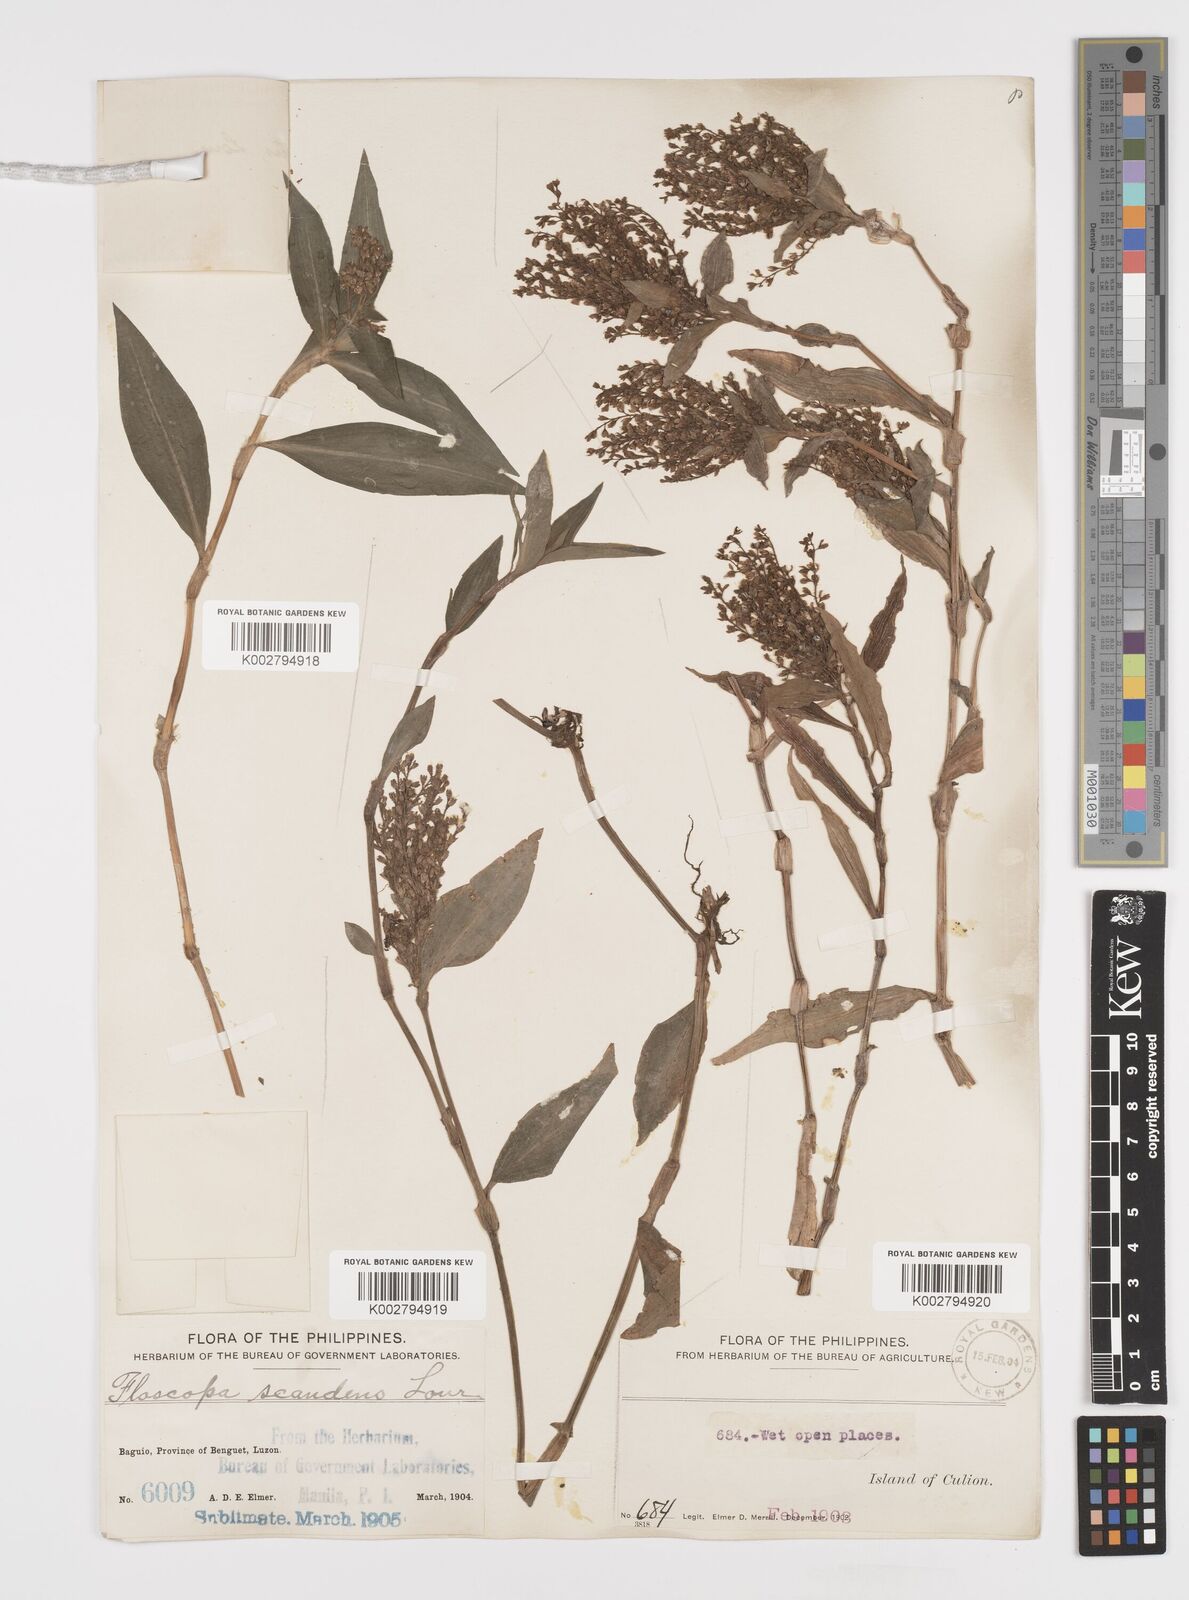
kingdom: Plantae
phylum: Tracheophyta
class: Liliopsida
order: Commelinales
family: Commelinaceae
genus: Floscopa
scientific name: Floscopa scandens
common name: Climbing flower cup
